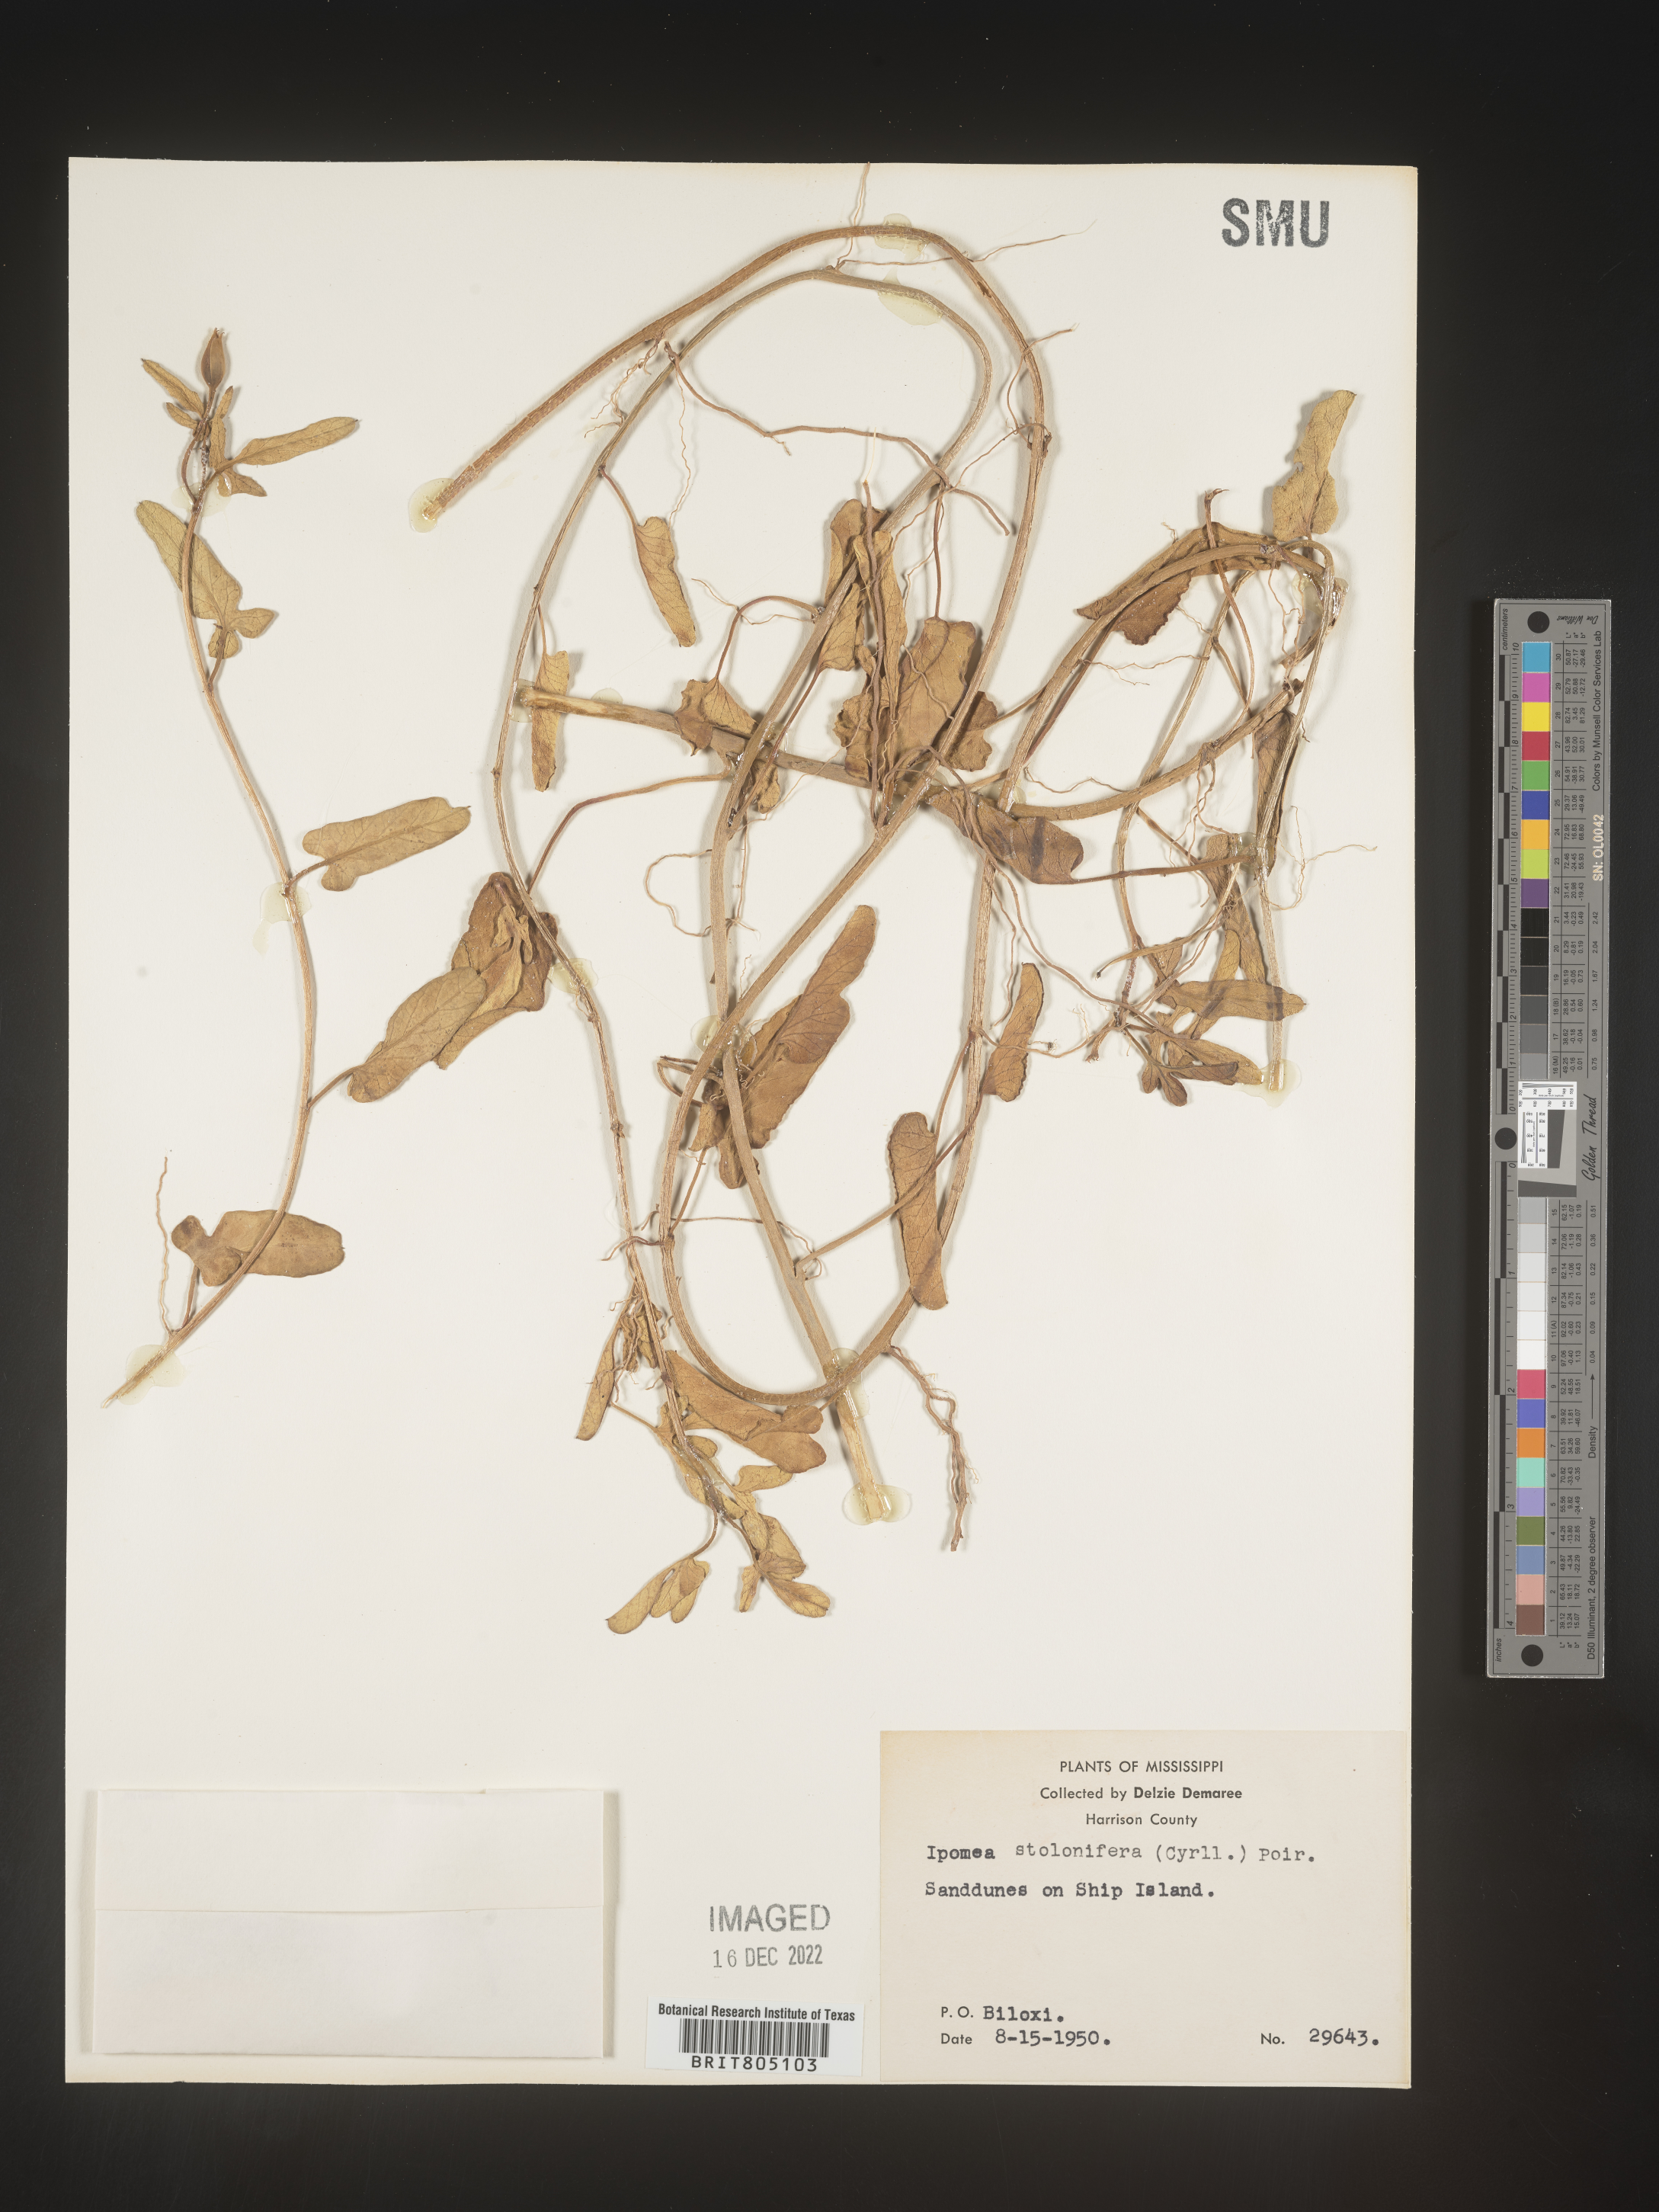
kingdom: Plantae
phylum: Tracheophyta
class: Magnoliopsida
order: Solanales
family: Convolvulaceae
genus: Ipomoea
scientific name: Ipomoea imperati
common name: Fiddle-leaf morning-glory
